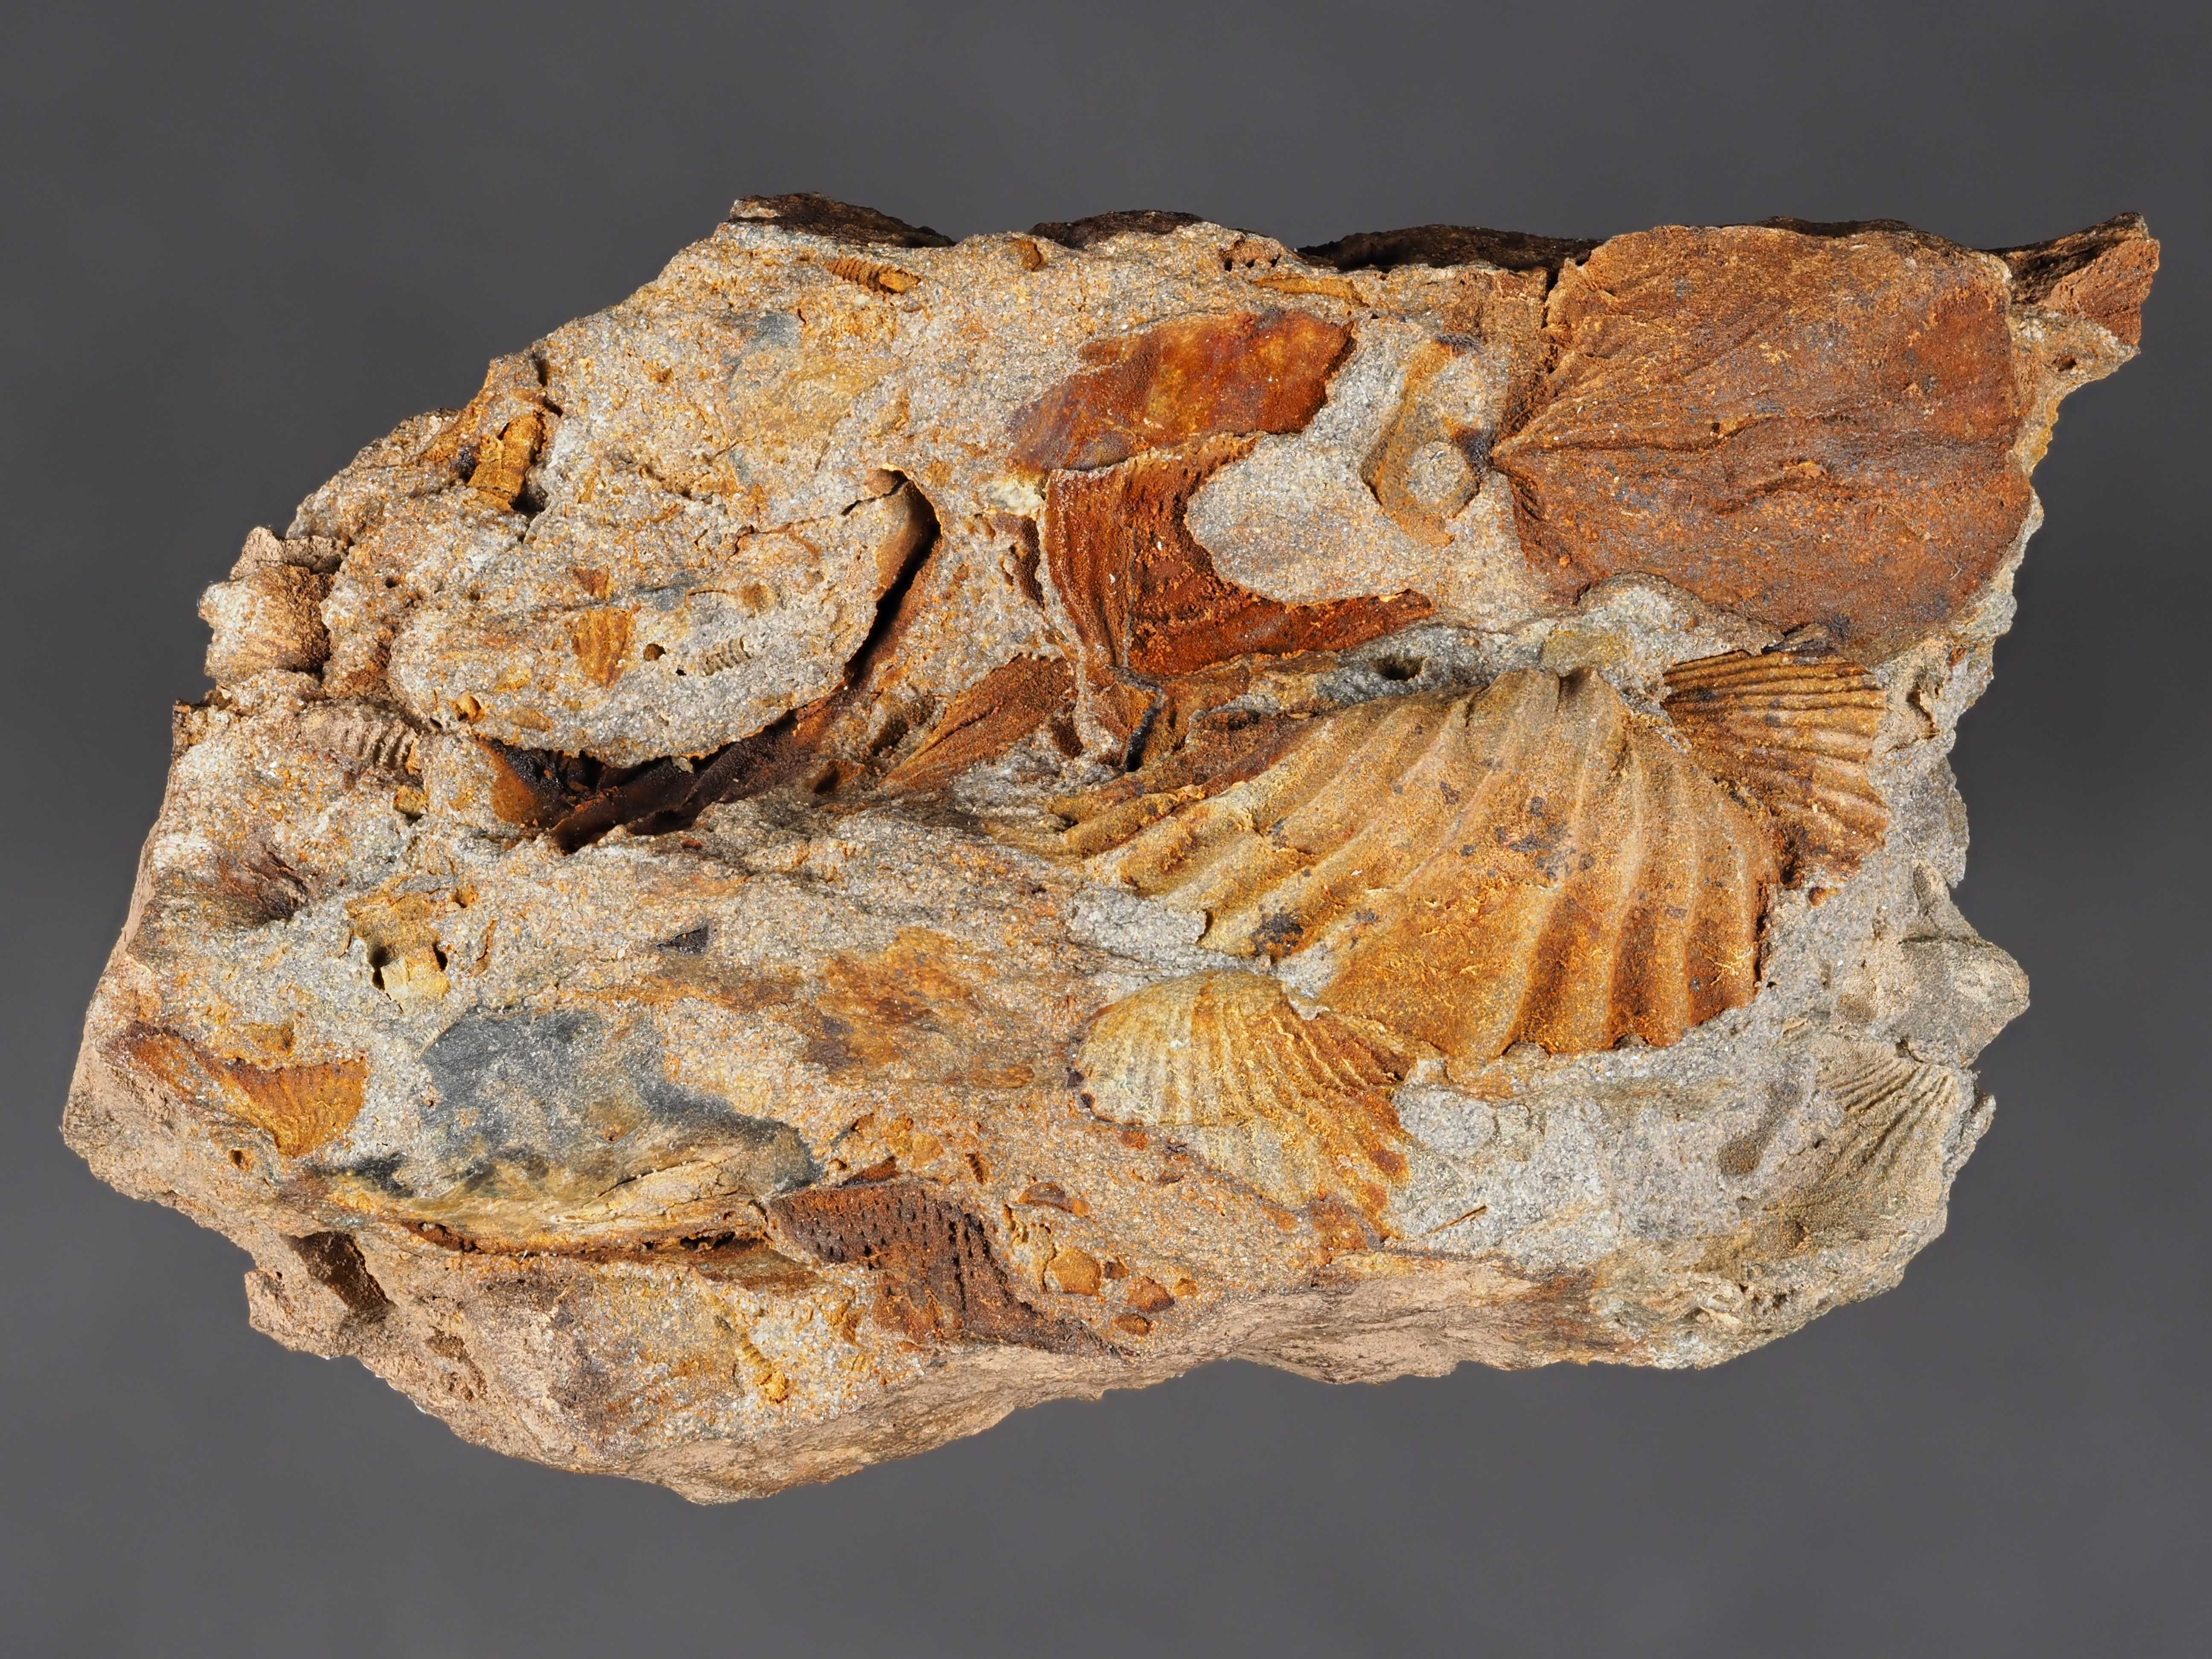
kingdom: Animalia
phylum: Brachiopoda
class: Rhynchonellata
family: Hysterolitidae
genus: Arduspirifer
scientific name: Arduspirifer
